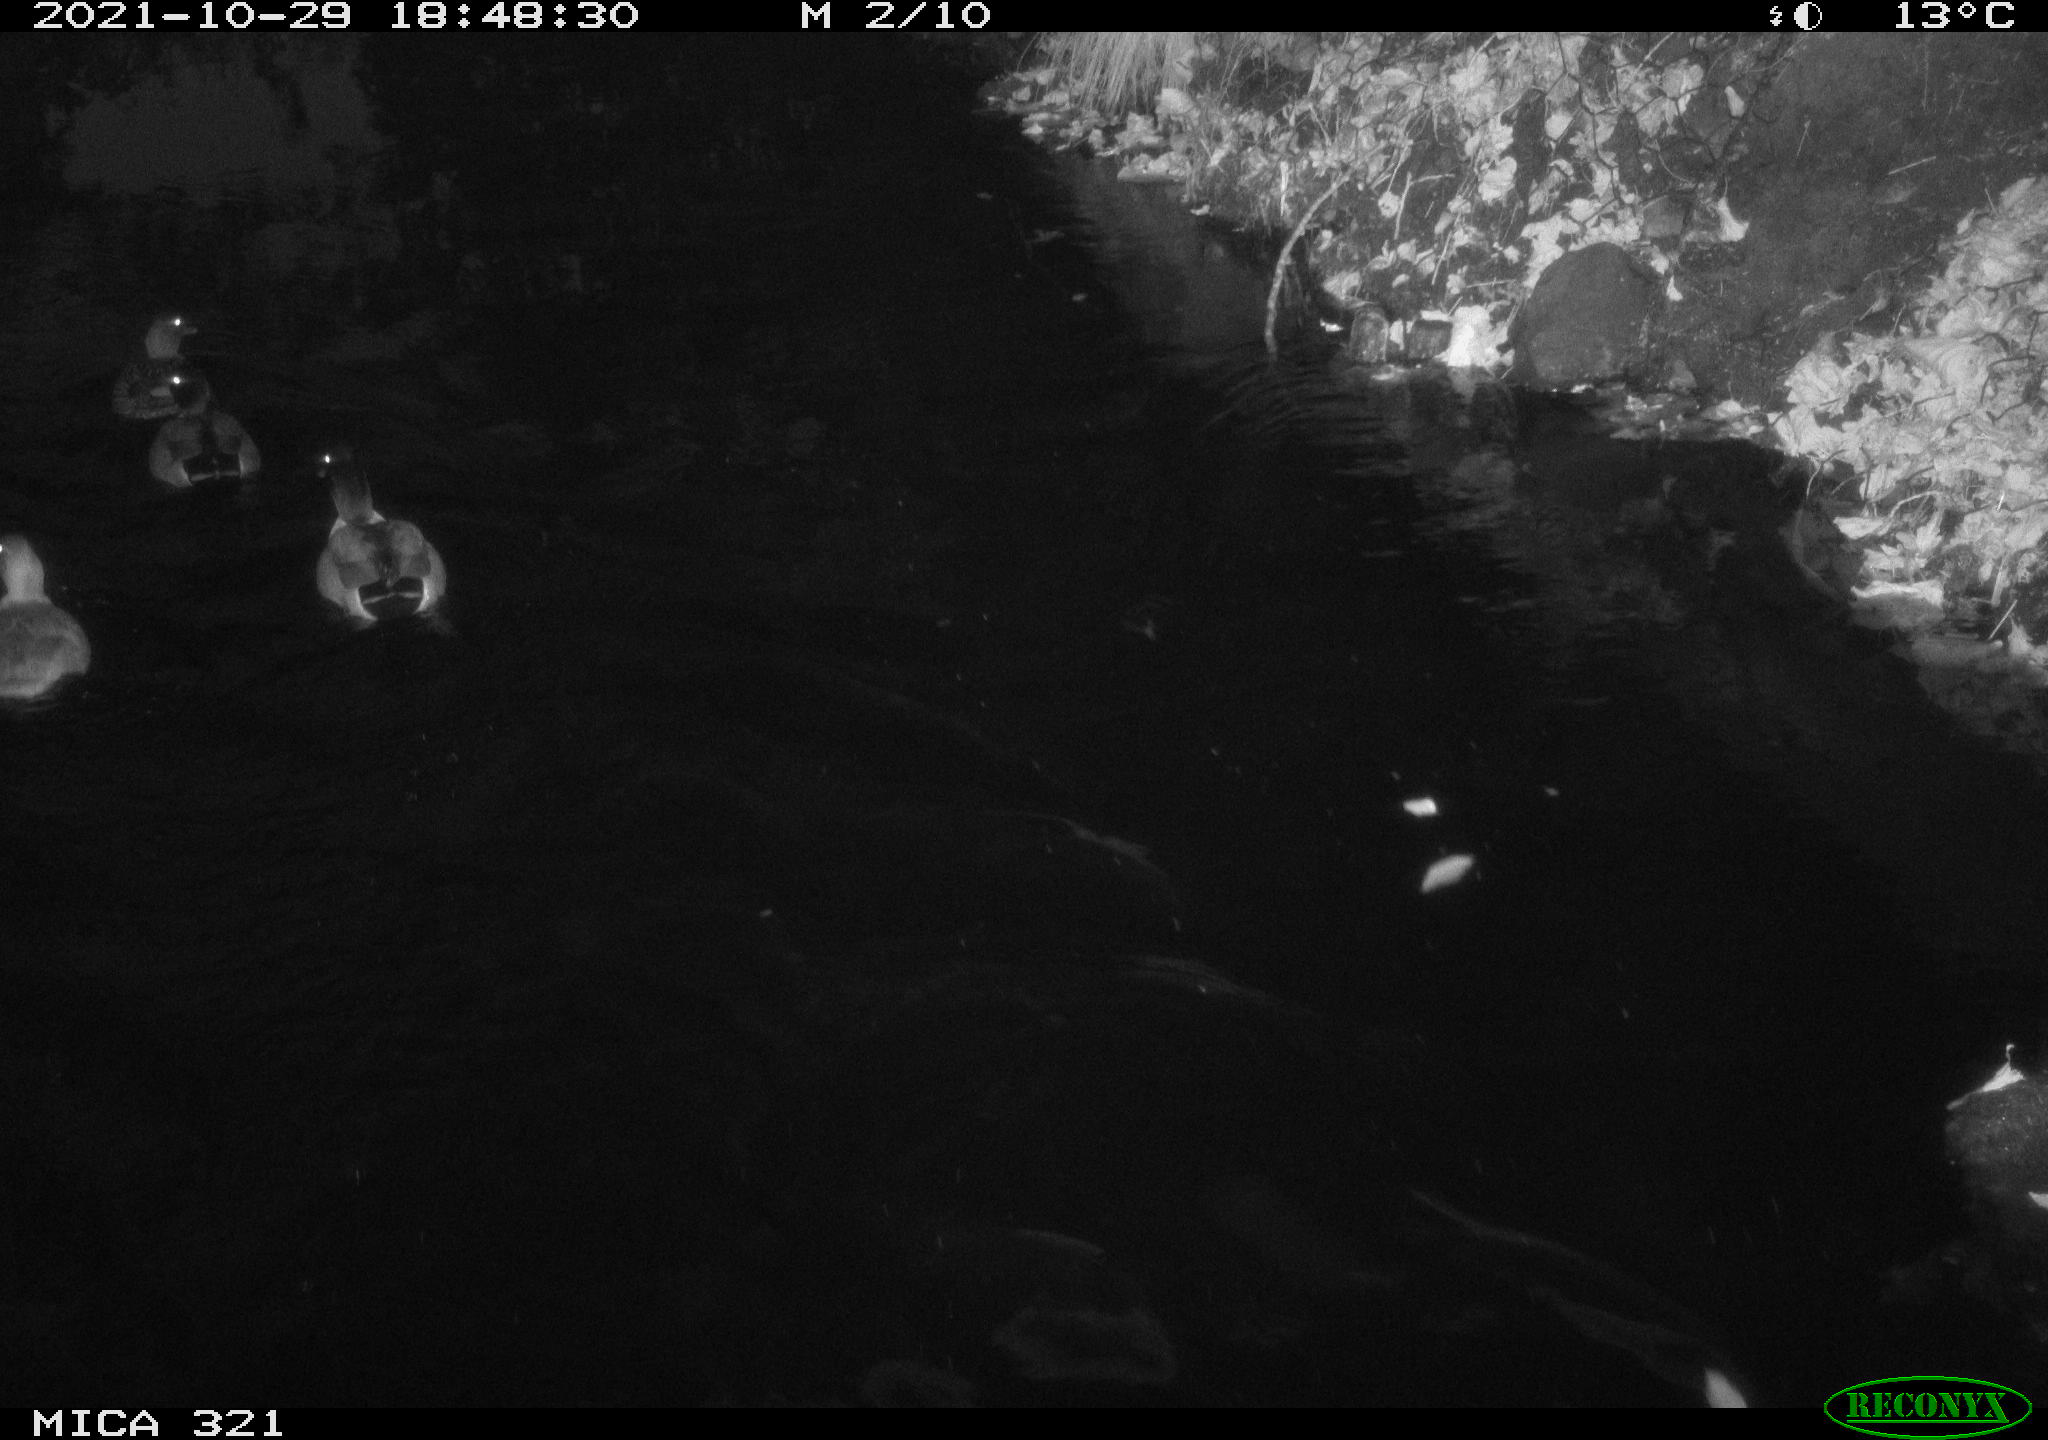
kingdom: Animalia
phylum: Chordata
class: Aves
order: Anseriformes
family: Anatidae
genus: Anas
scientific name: Anas platyrhynchos
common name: Mallard
